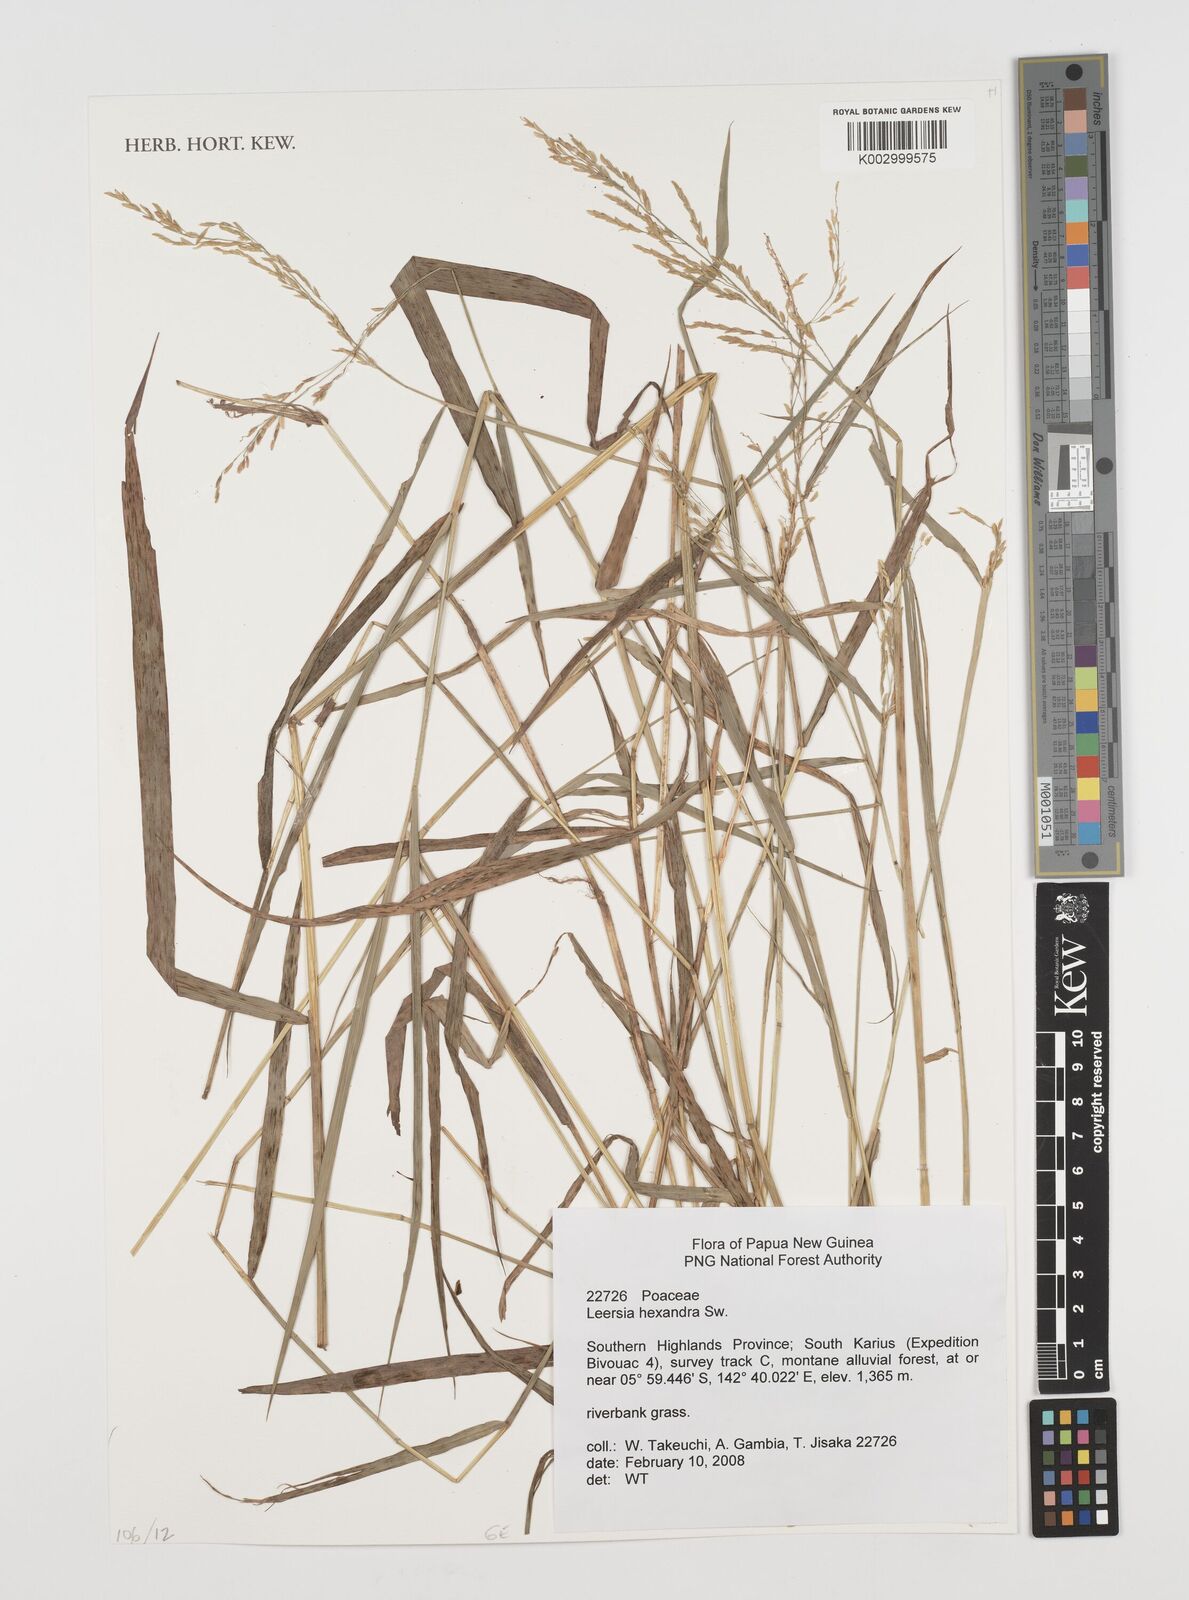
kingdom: Plantae
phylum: Tracheophyta
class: Liliopsida
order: Poales
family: Poaceae
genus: Leersia
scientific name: Leersia hexandra
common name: Southern cut grass
